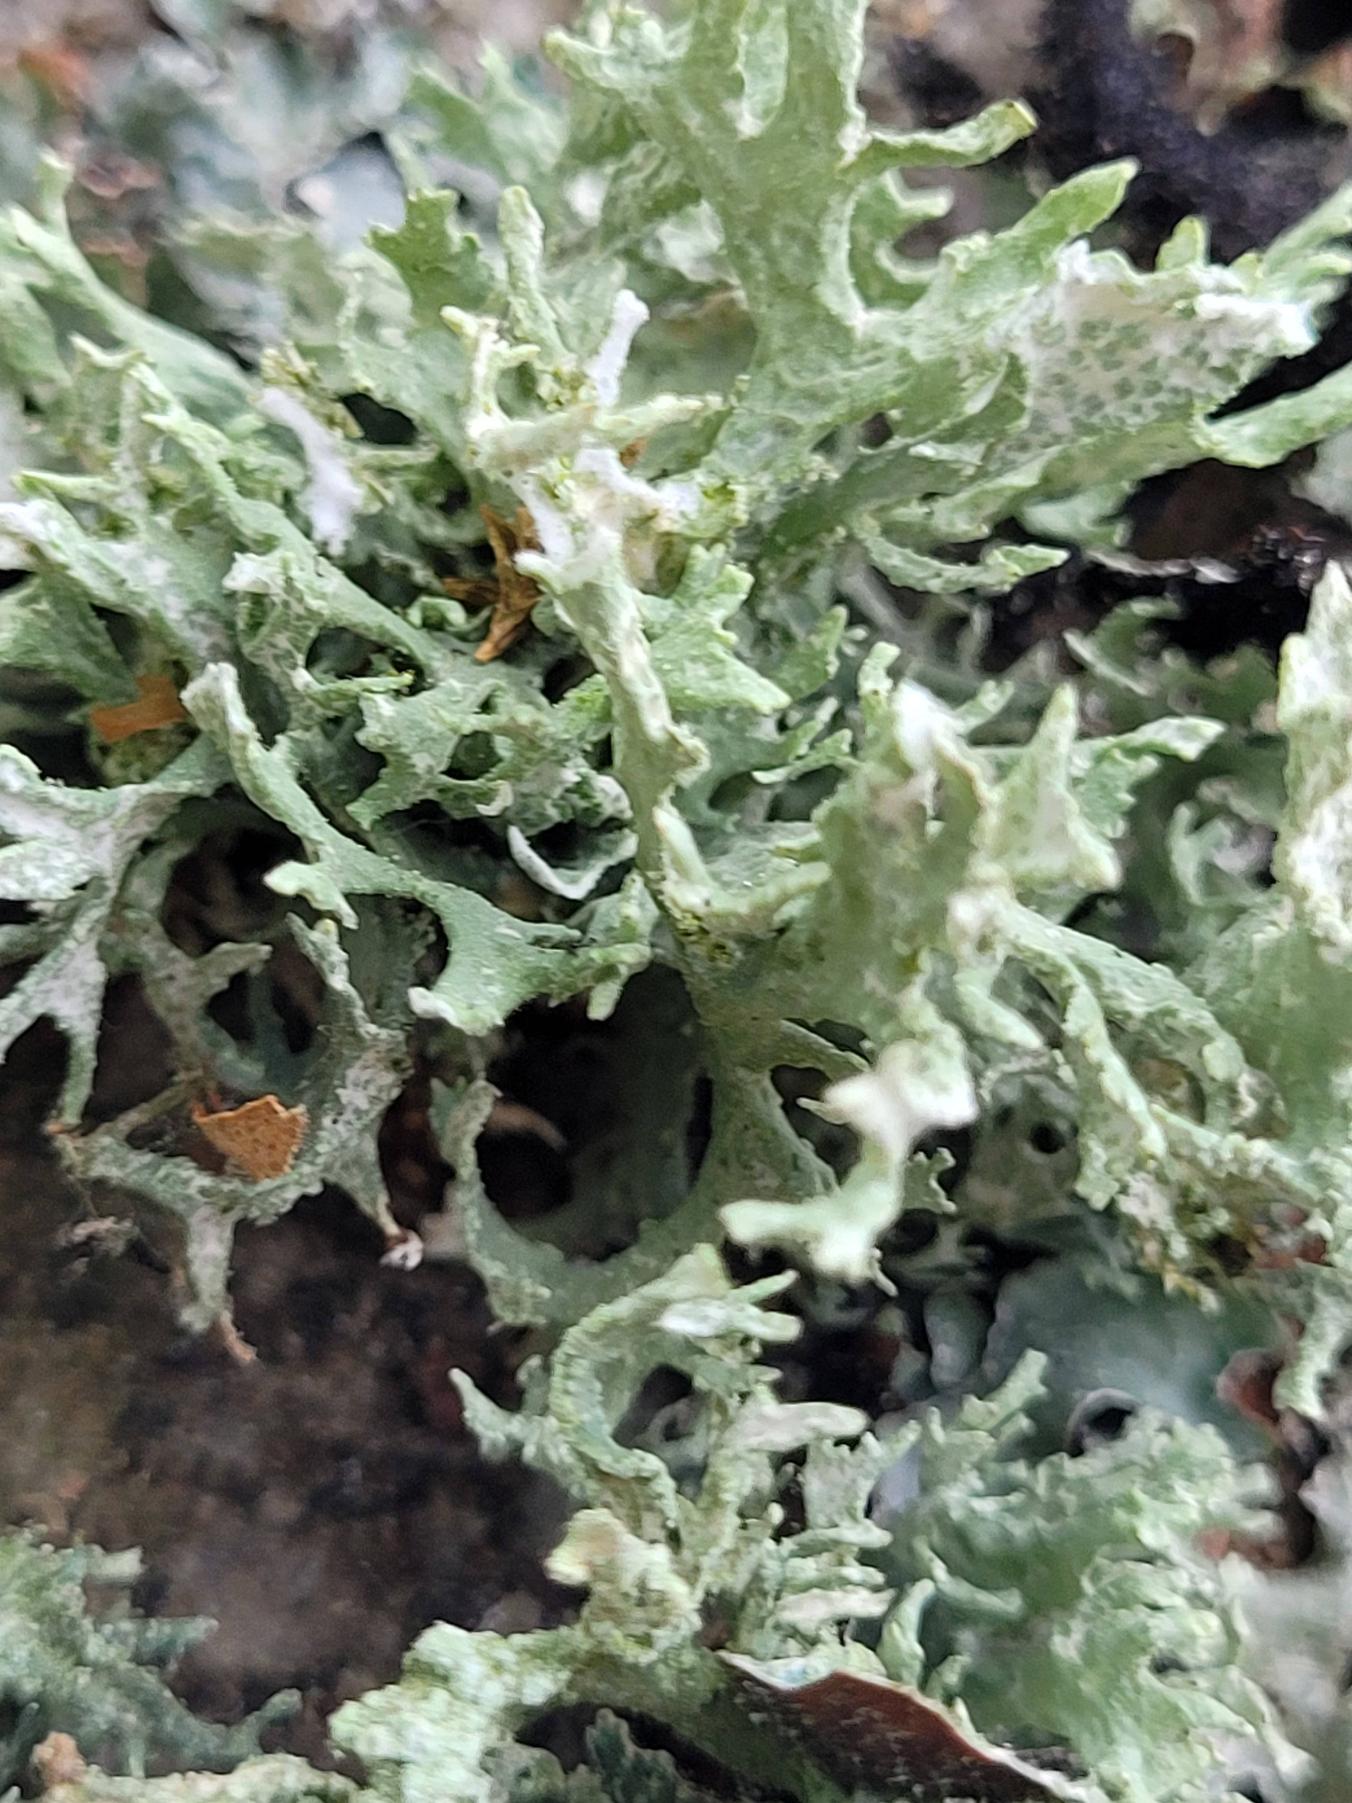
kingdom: Fungi
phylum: Ascomycota
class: Lecanoromycetes
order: Lecanorales
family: Parmeliaceae
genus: Evernia
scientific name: Evernia prunastri
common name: Almindelig slåenlav
